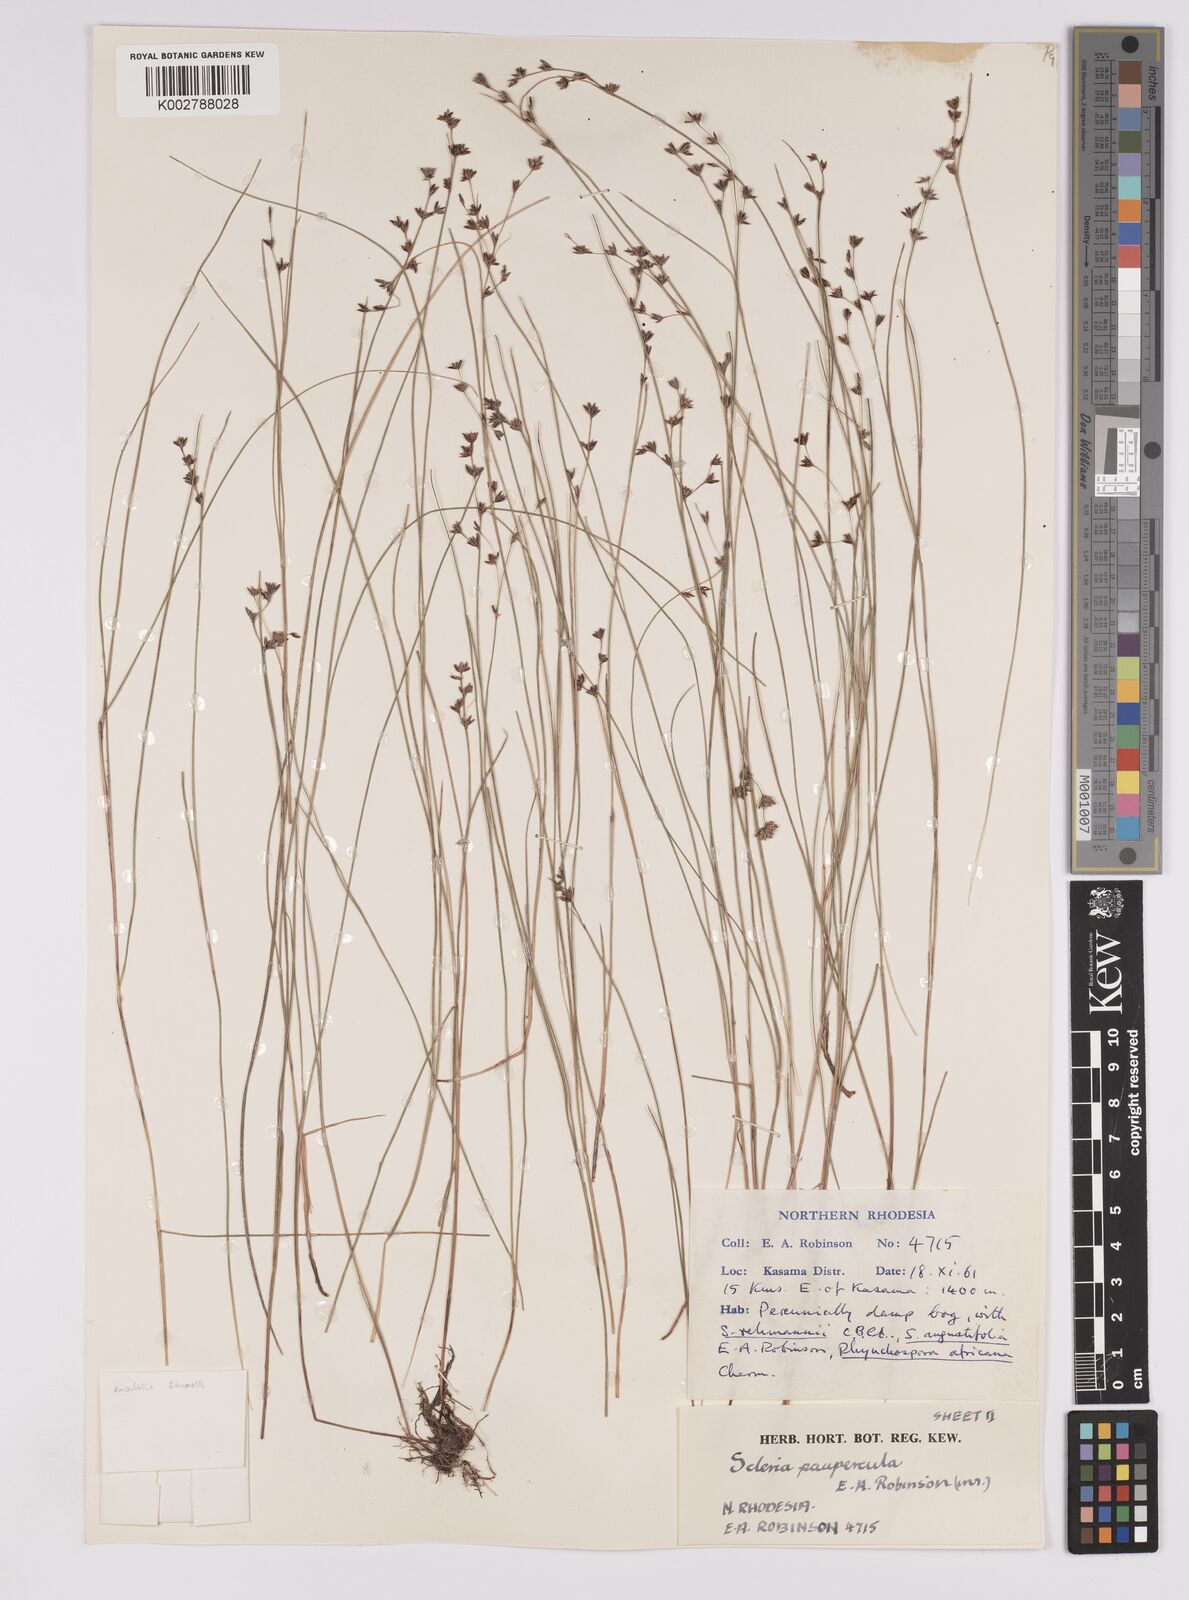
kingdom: Plantae
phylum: Tracheophyta
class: Liliopsida
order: Poales
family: Cyperaceae
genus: Scleria
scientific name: Scleria paupercula
